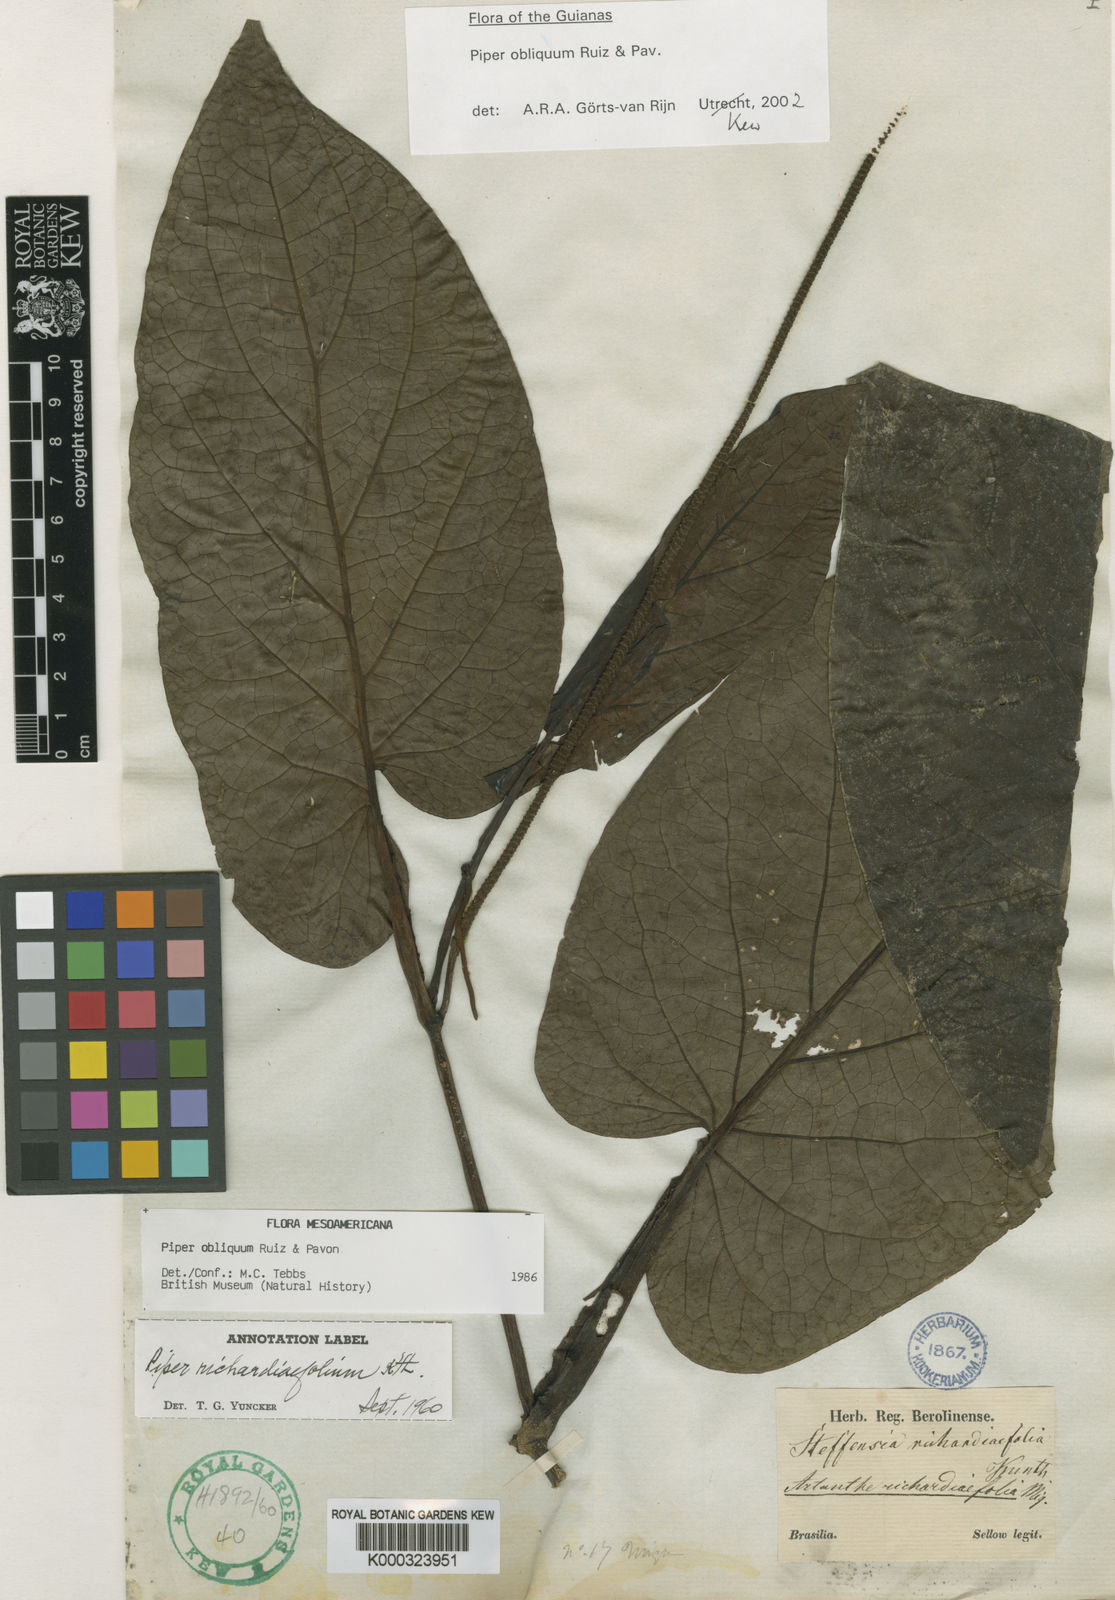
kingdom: Plantae
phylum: Tracheophyta
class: Magnoliopsida
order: Piperales
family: Piperaceae
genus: Piper
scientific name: Piper obliquum
